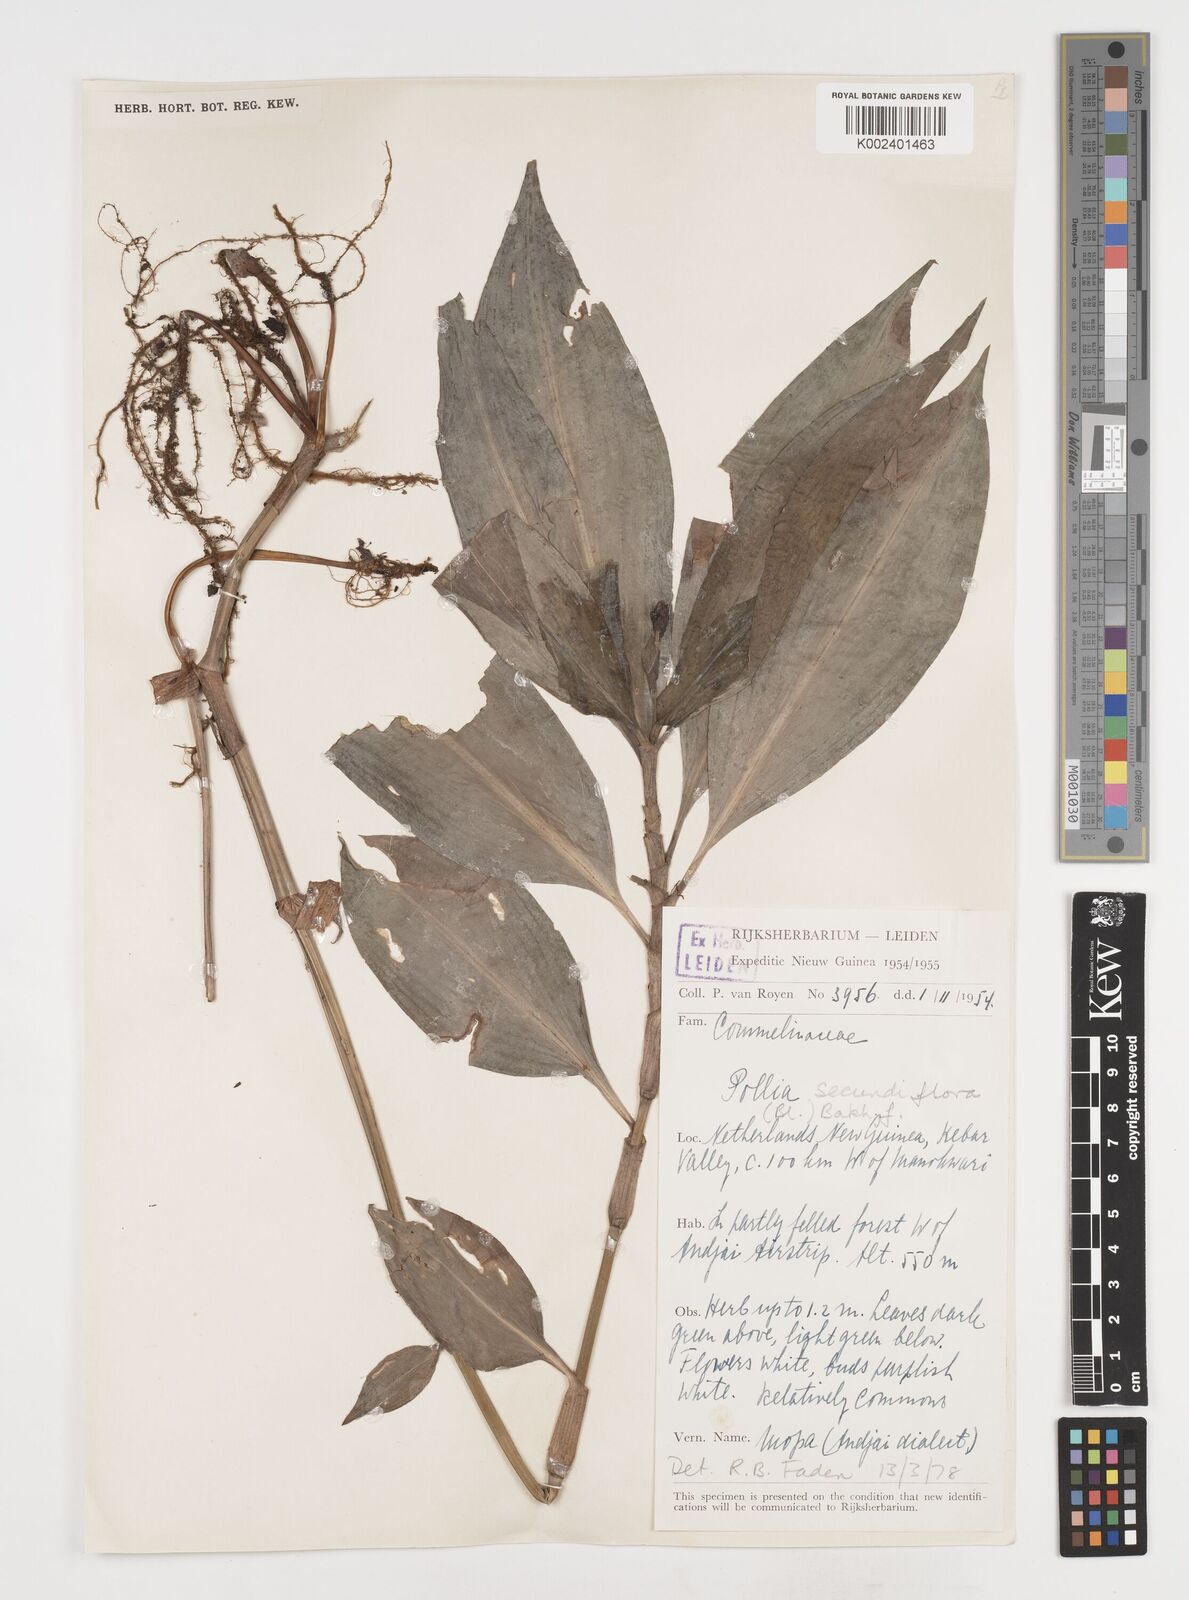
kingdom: Plantae
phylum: Tracheophyta
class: Liliopsida
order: Commelinales
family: Commelinaceae
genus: Pollia
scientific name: Pollia secundiflora
